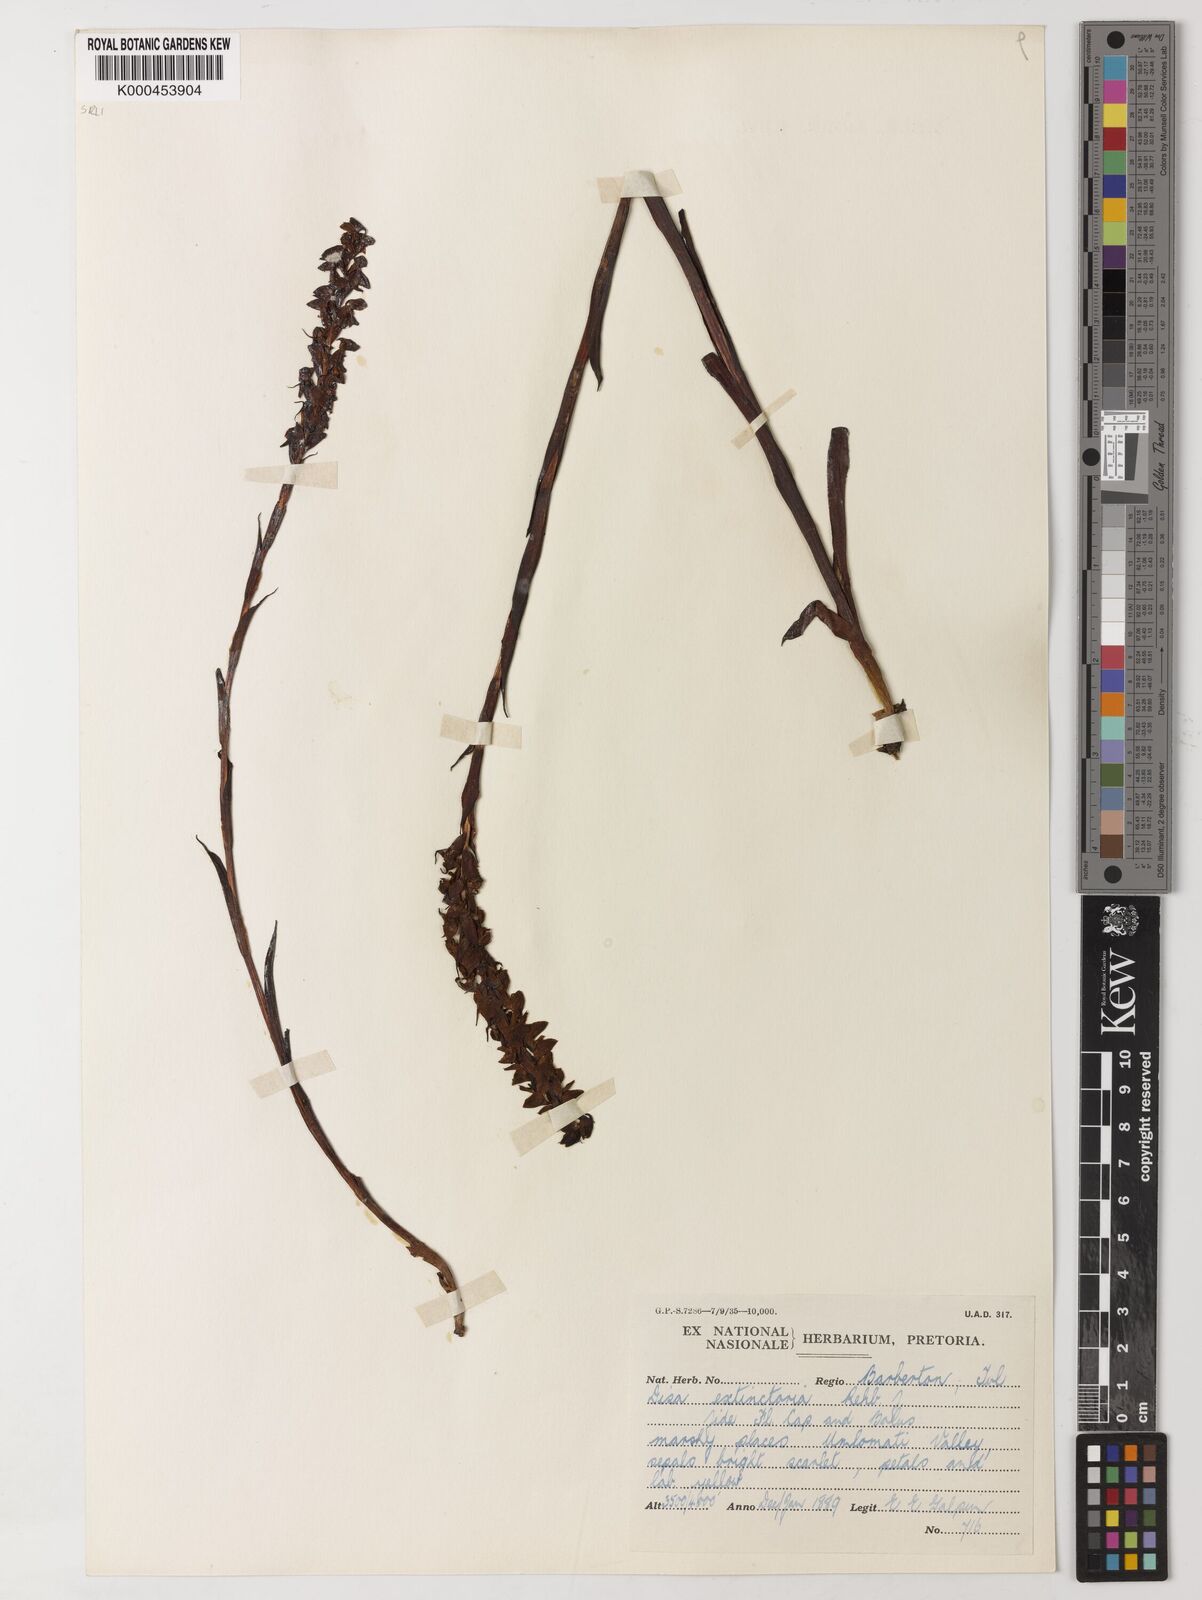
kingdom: Plantae
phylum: Tracheophyta
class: Liliopsida
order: Asparagales
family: Orchidaceae
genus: Disa
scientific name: Disa extinctoria
